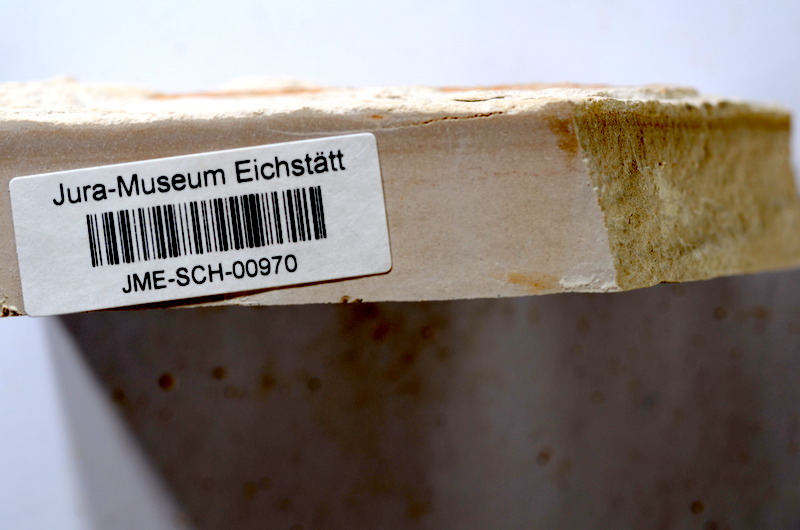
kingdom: Animalia
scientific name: Animalia
